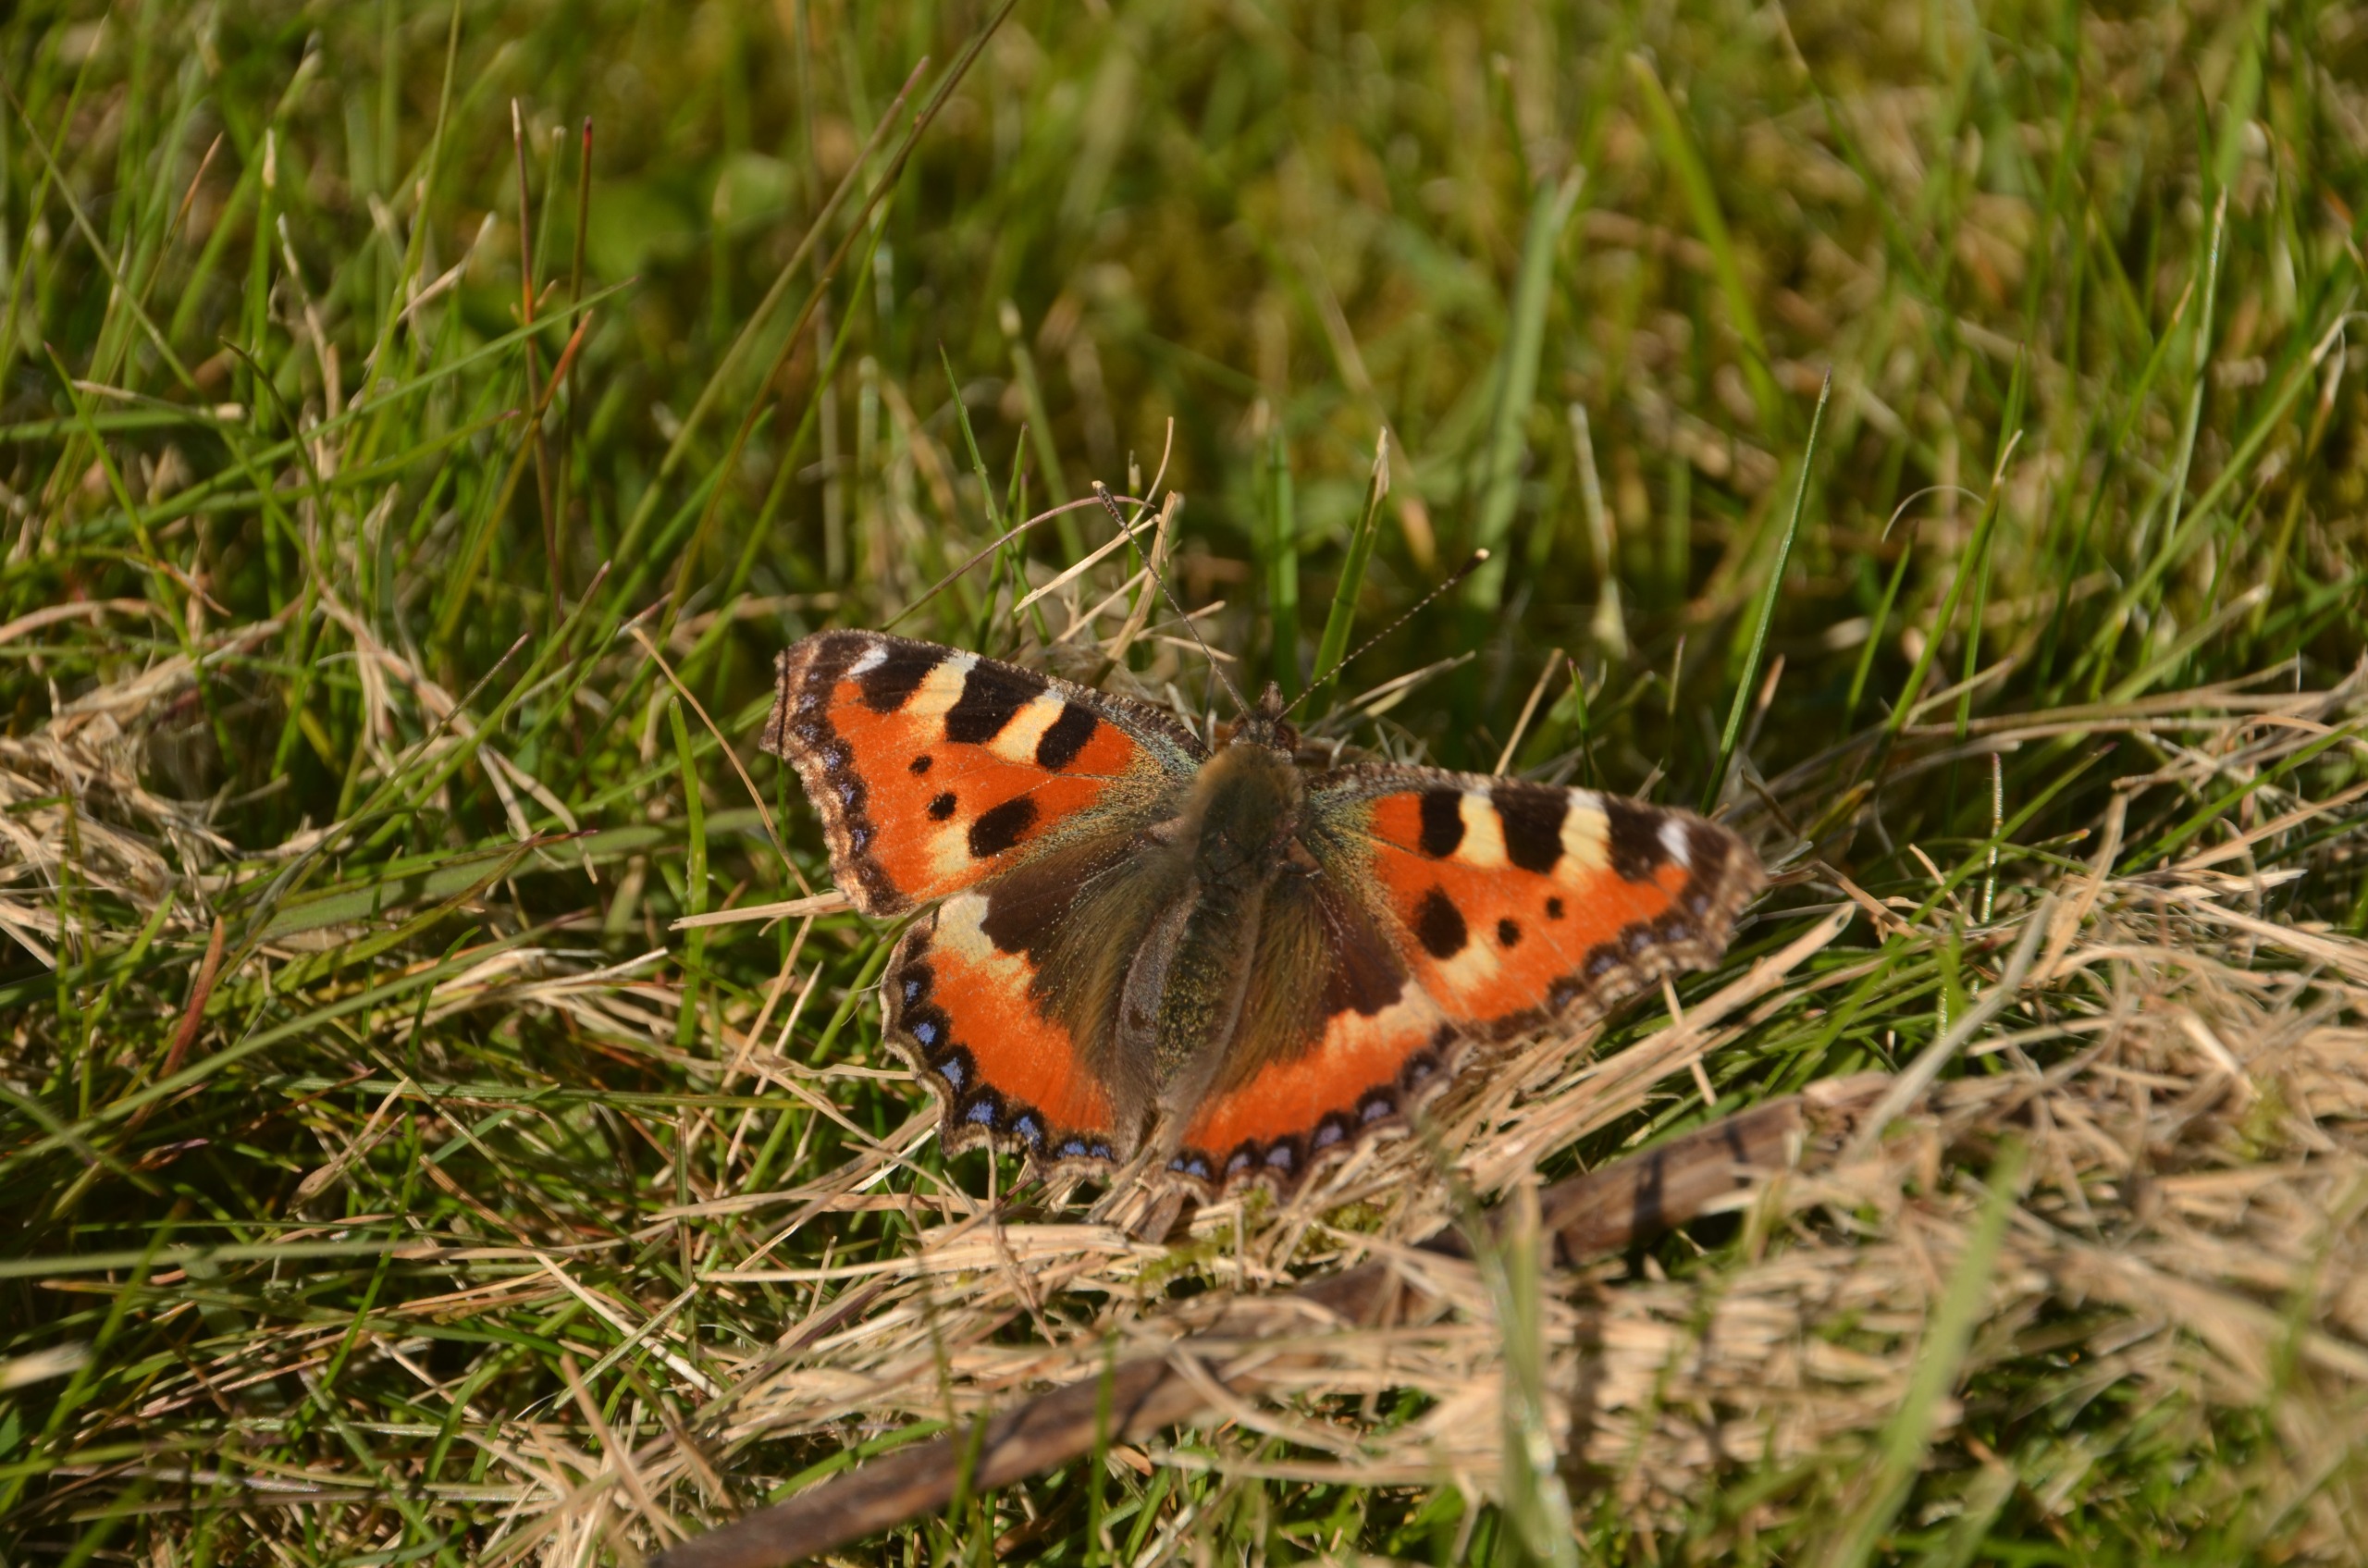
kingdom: Animalia
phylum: Arthropoda
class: Insecta
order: Lepidoptera
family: Nymphalidae
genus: Aglais
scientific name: Aglais urticae
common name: Nældens takvinge
